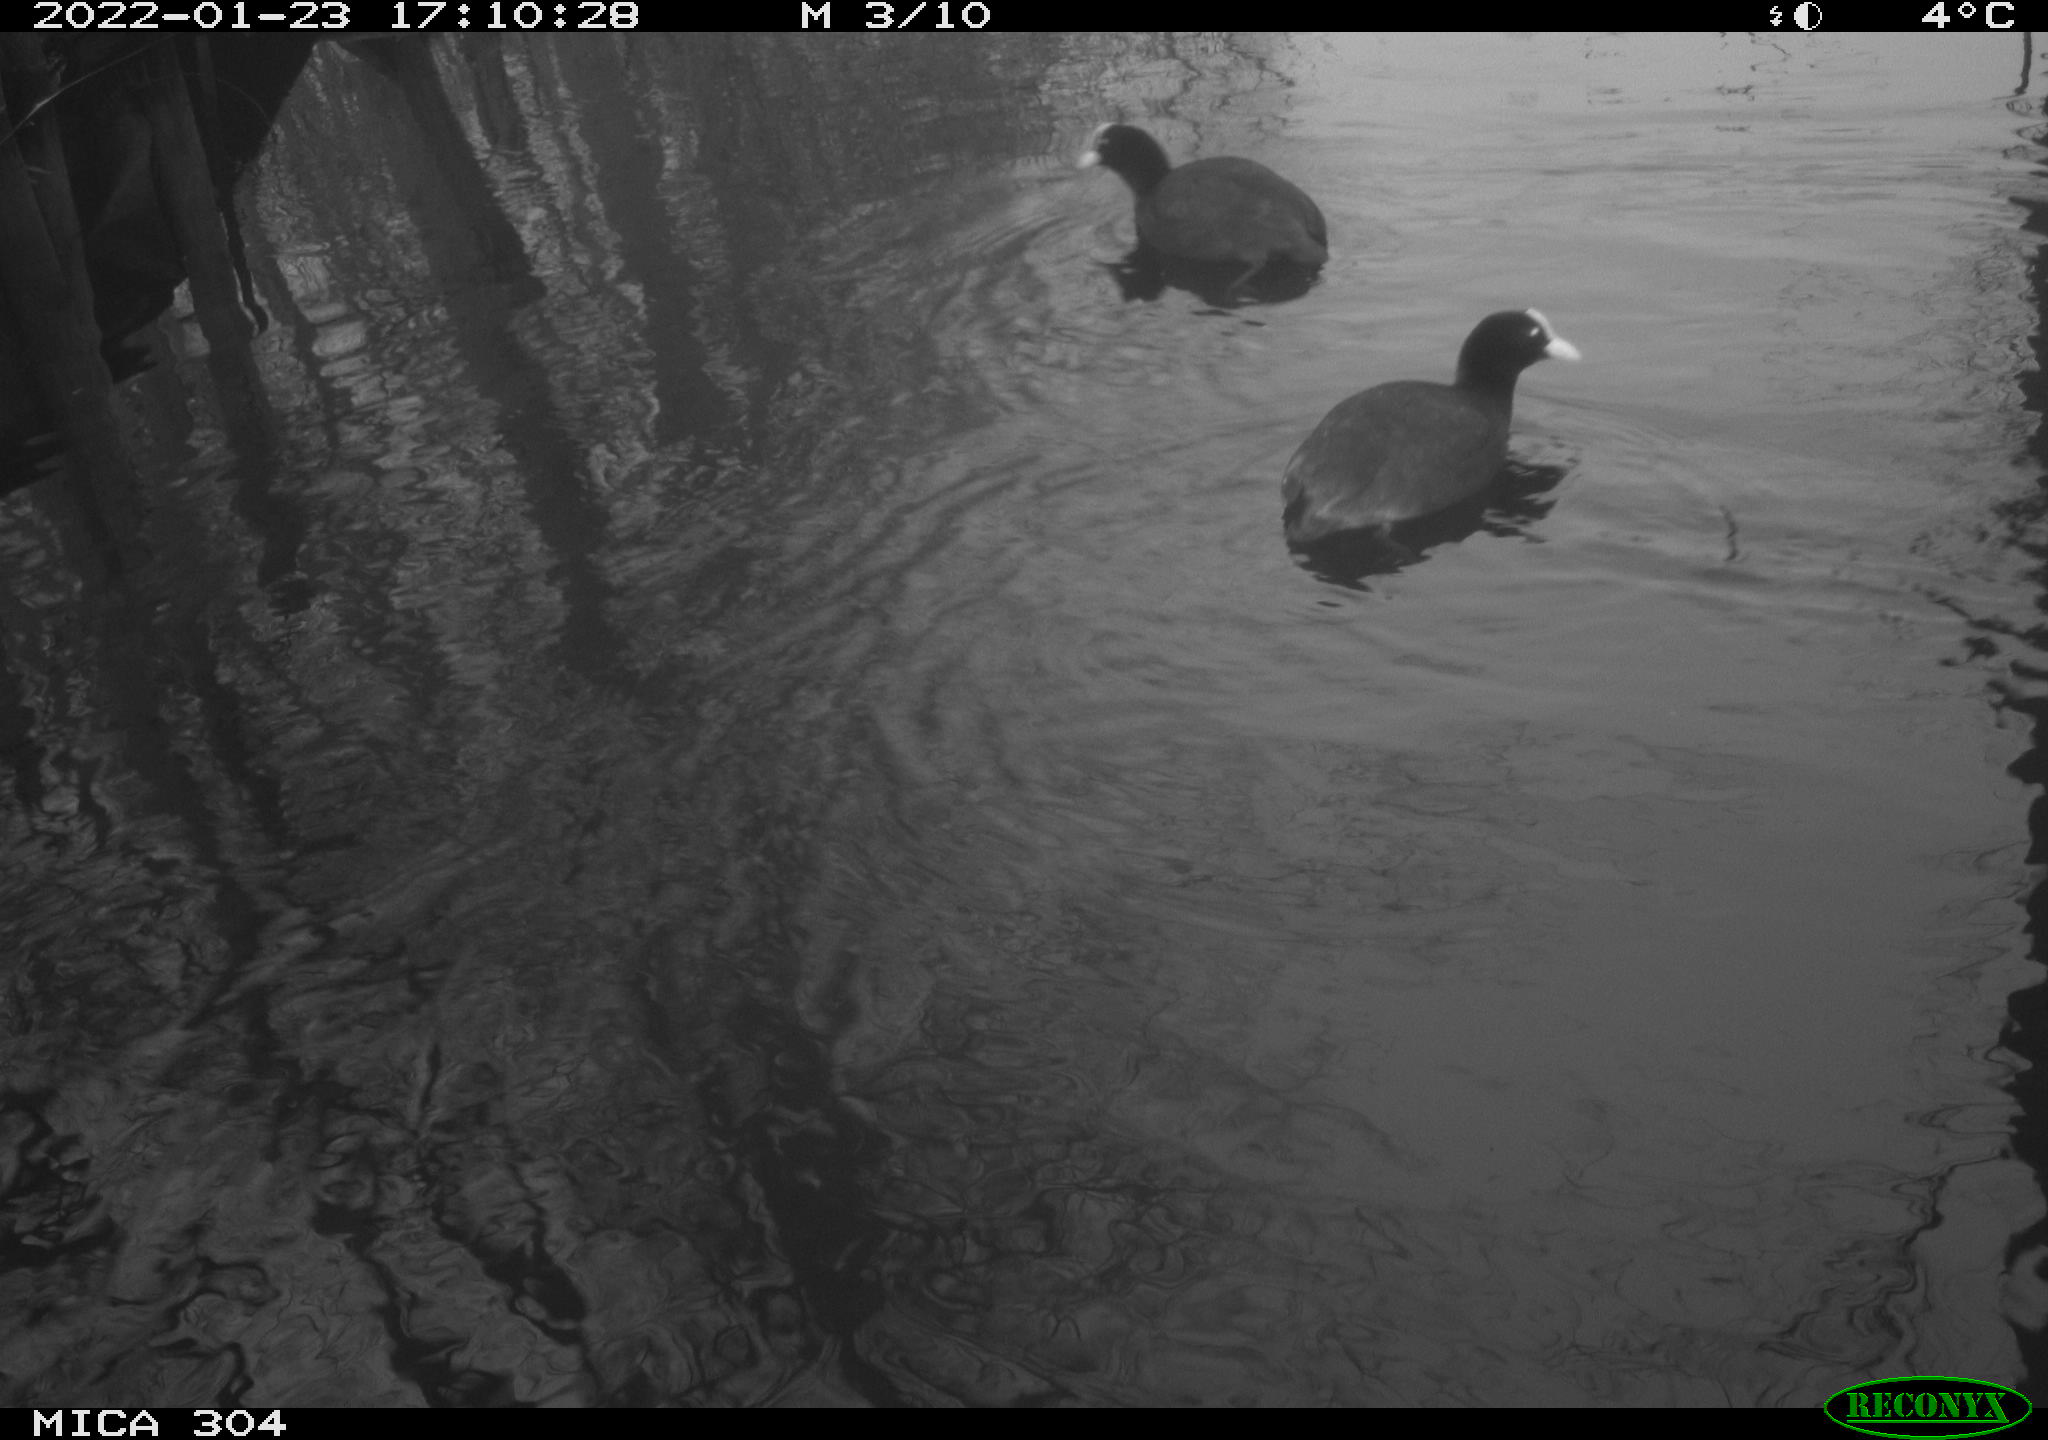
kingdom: Animalia
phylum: Chordata
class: Aves
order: Anseriformes
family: Anatidae
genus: Anas
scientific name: Anas
